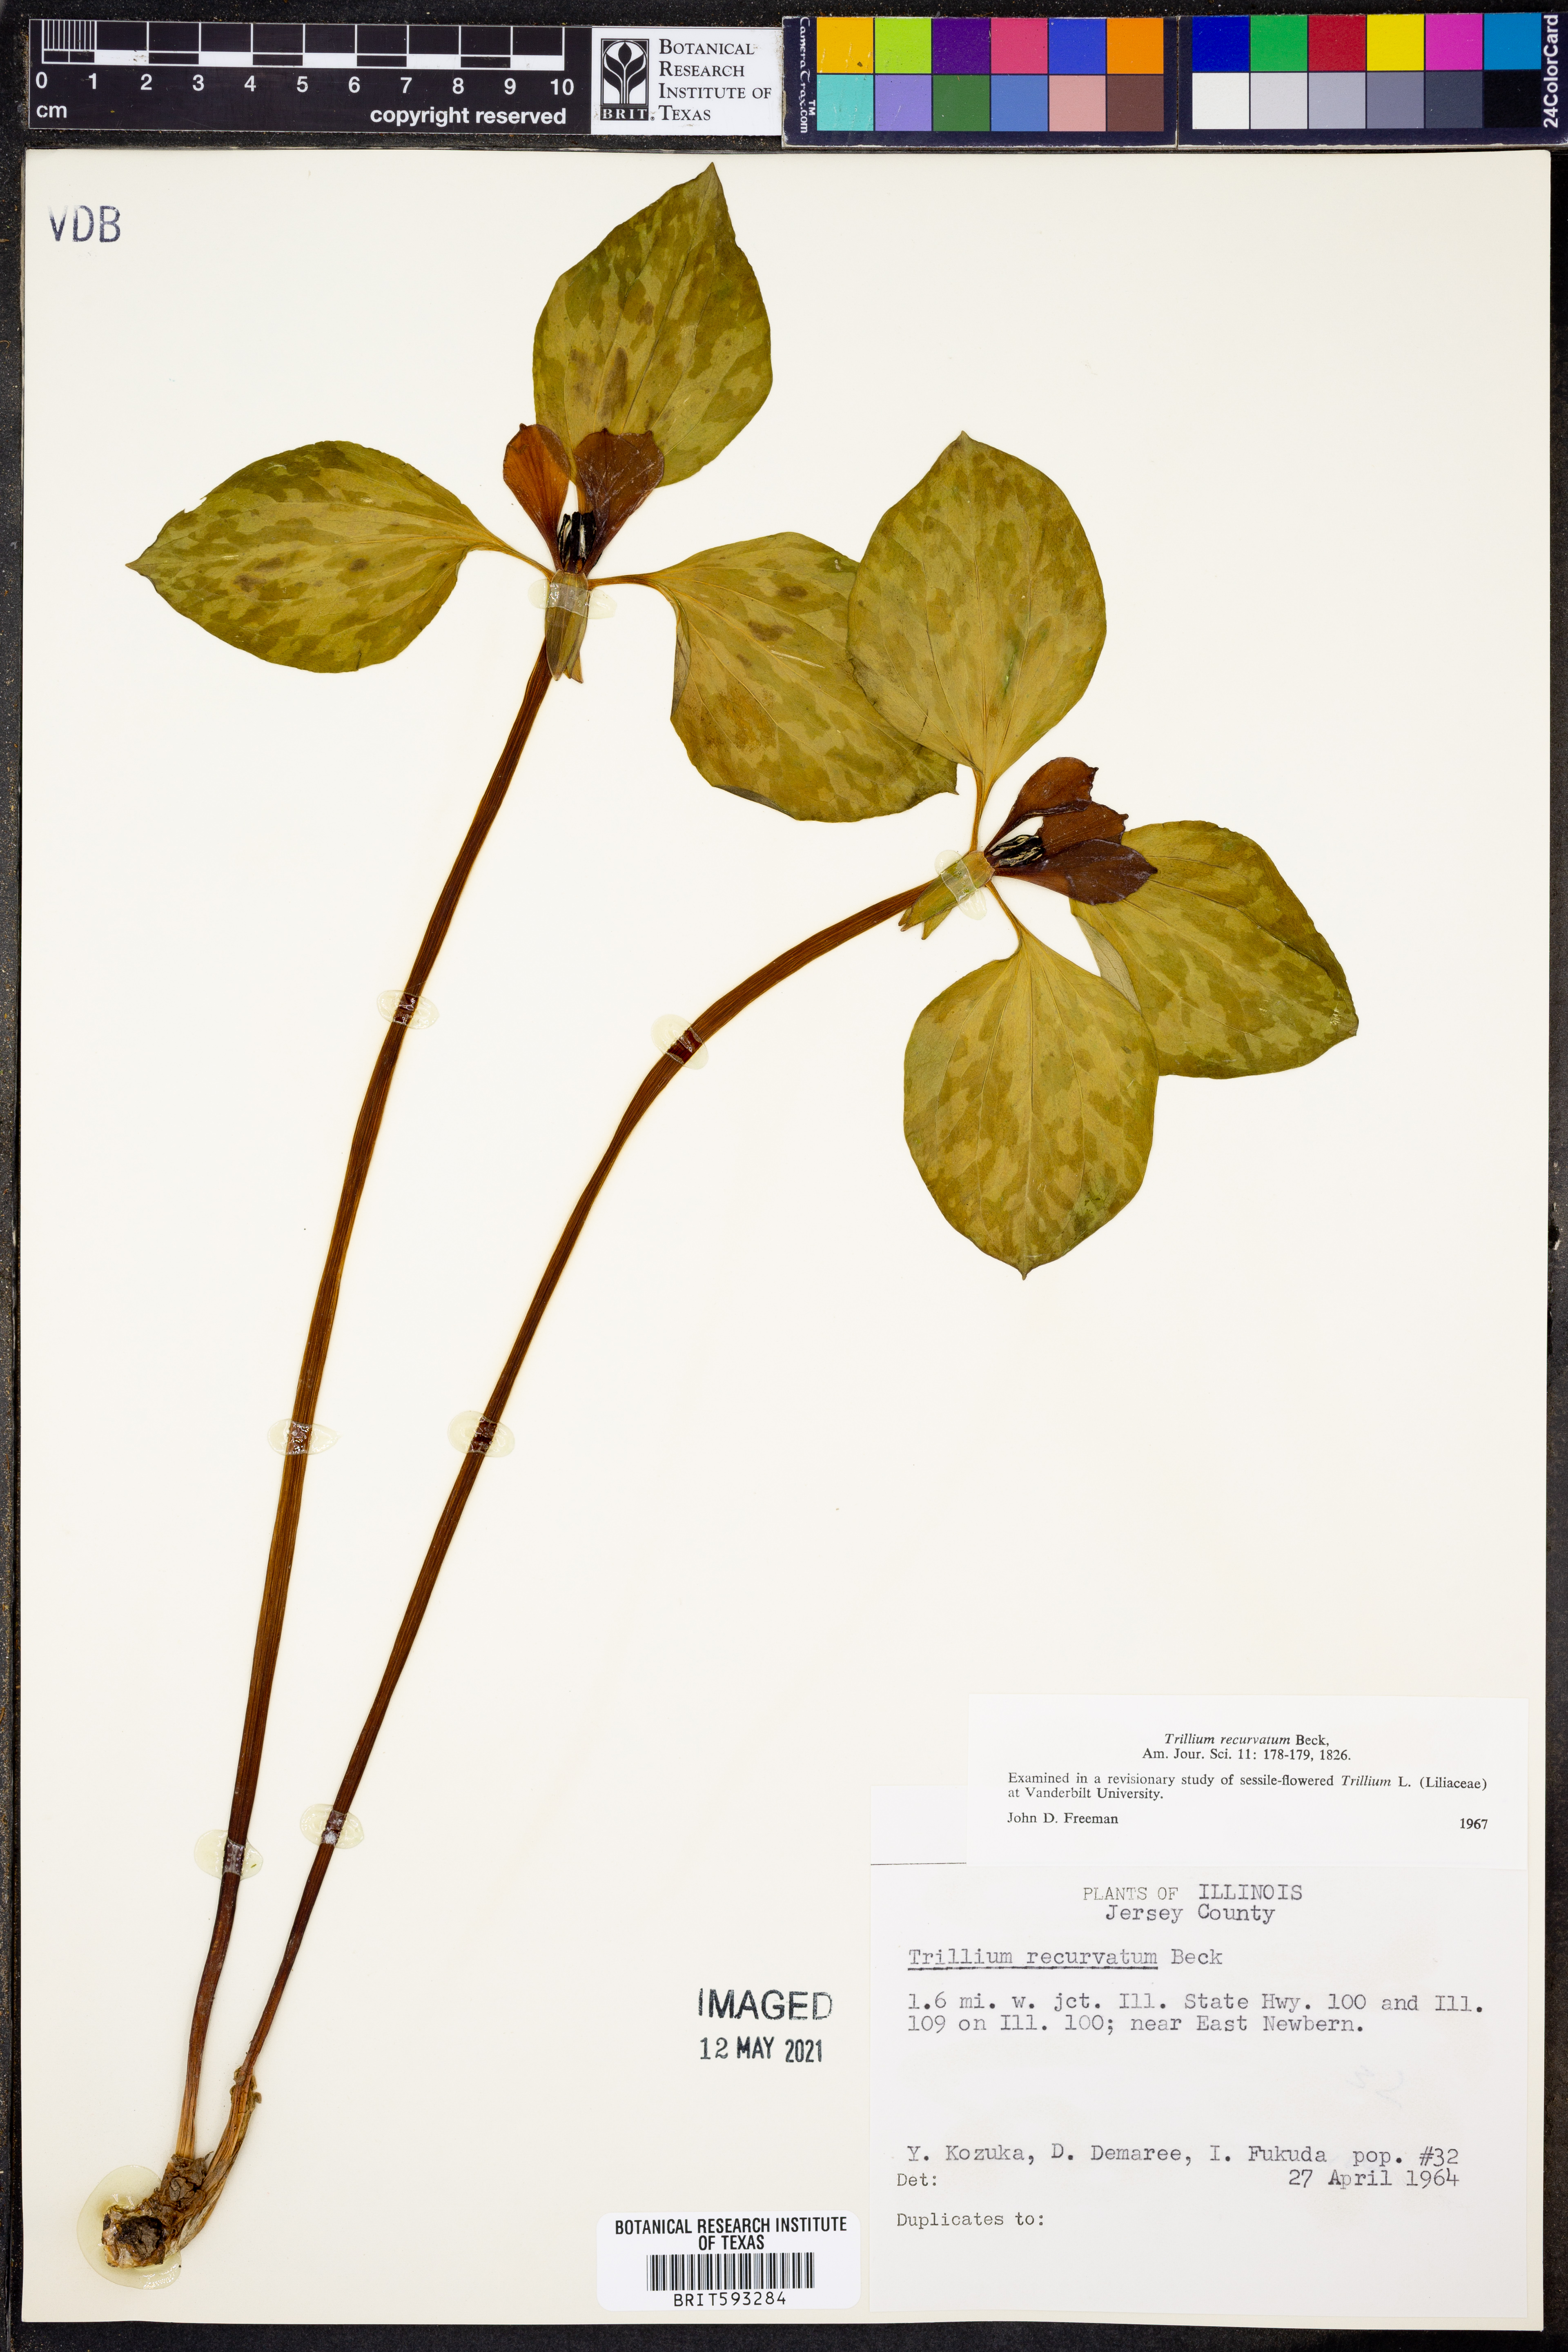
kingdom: Plantae
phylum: Tracheophyta
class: Liliopsida
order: Liliales
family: Melanthiaceae
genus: Trillium
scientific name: Trillium recurvatum
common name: Bloody butcher
